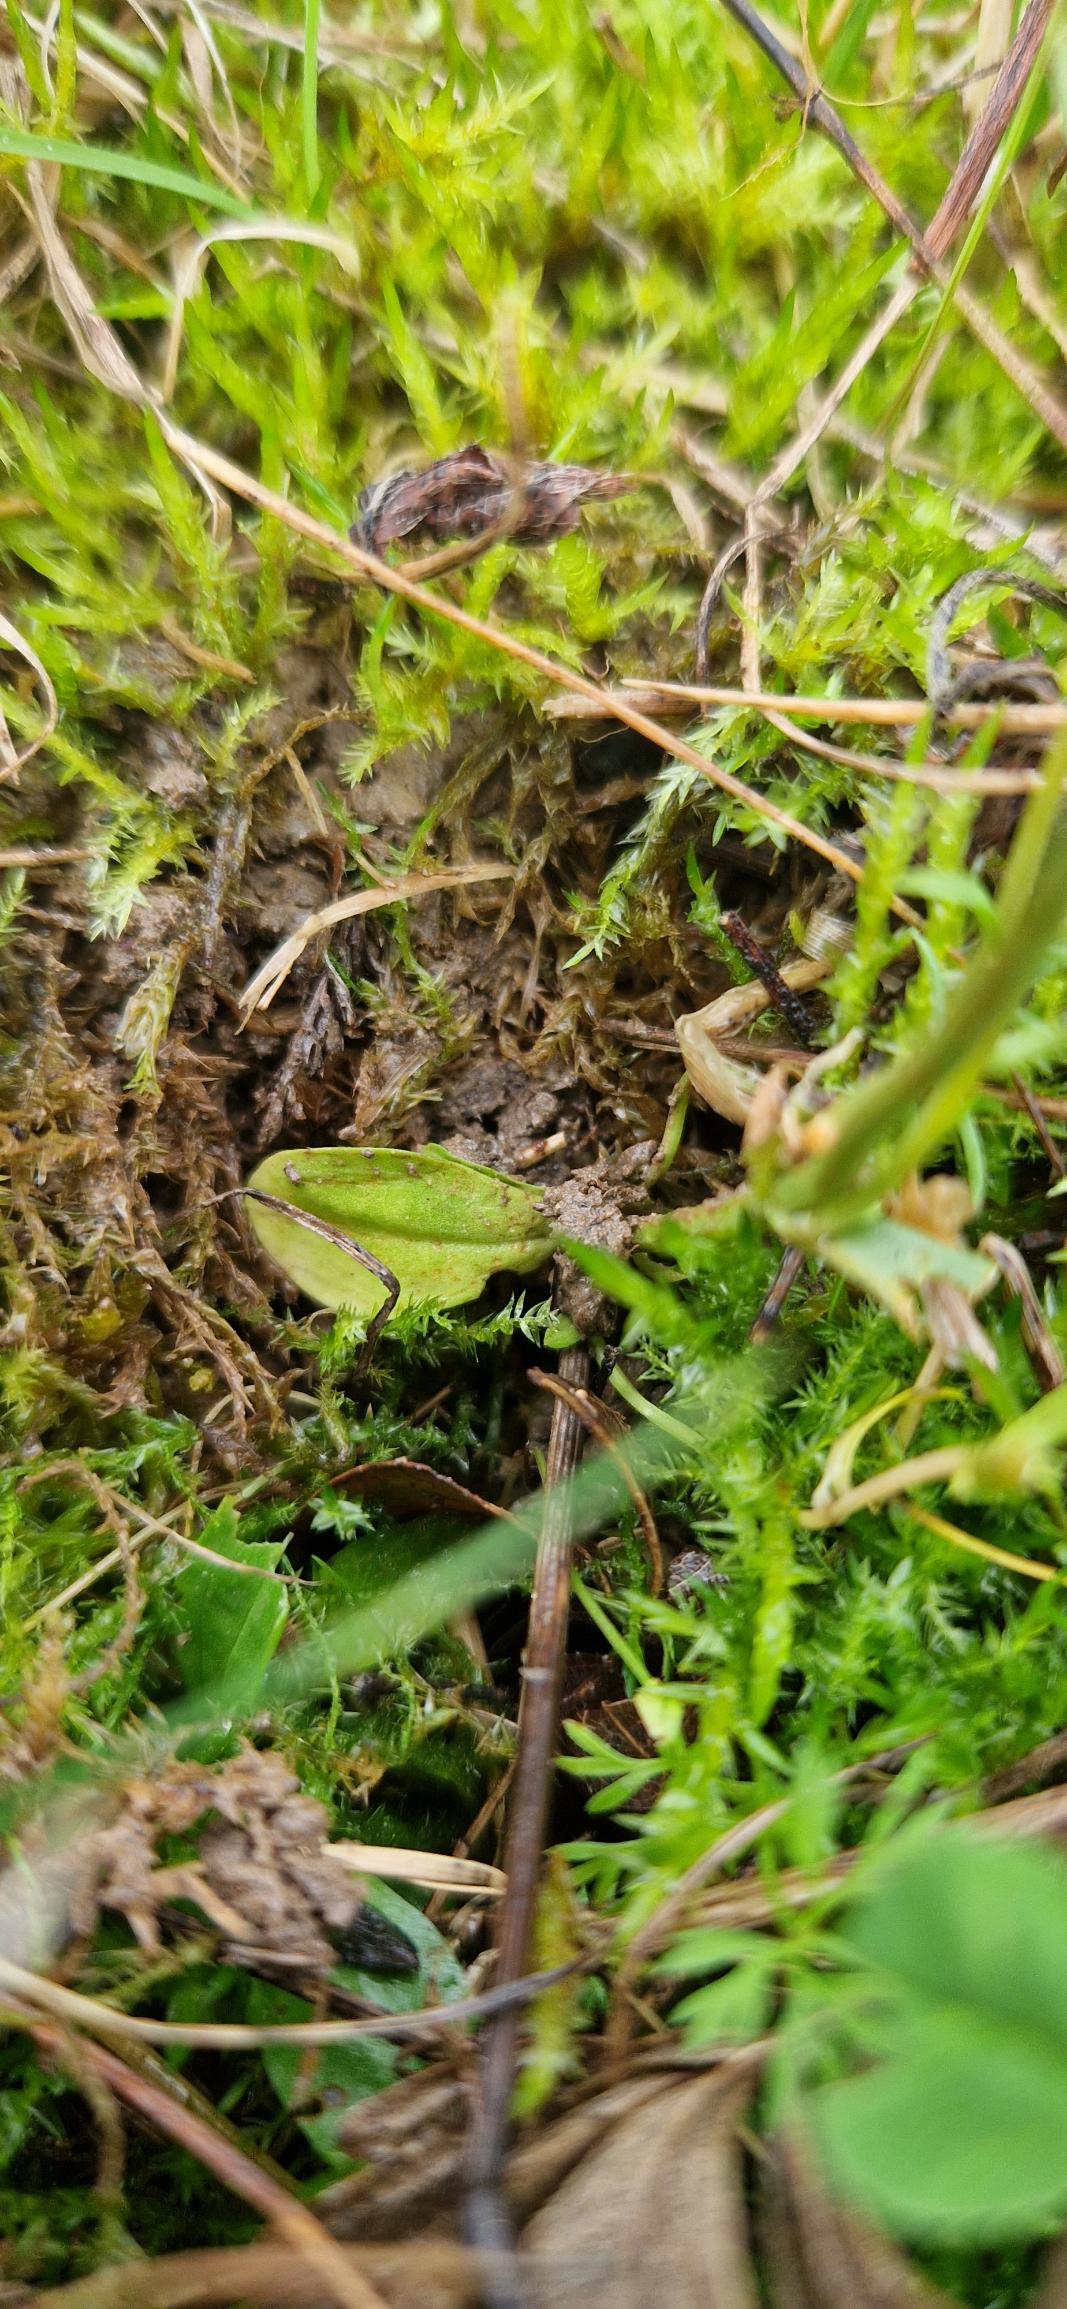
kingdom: Plantae
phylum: Tracheophyta
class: Magnoliopsida
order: Gentianales
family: Gentianaceae
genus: Centaurium
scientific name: Centaurium erythraea
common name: Mark-tusindgylden
